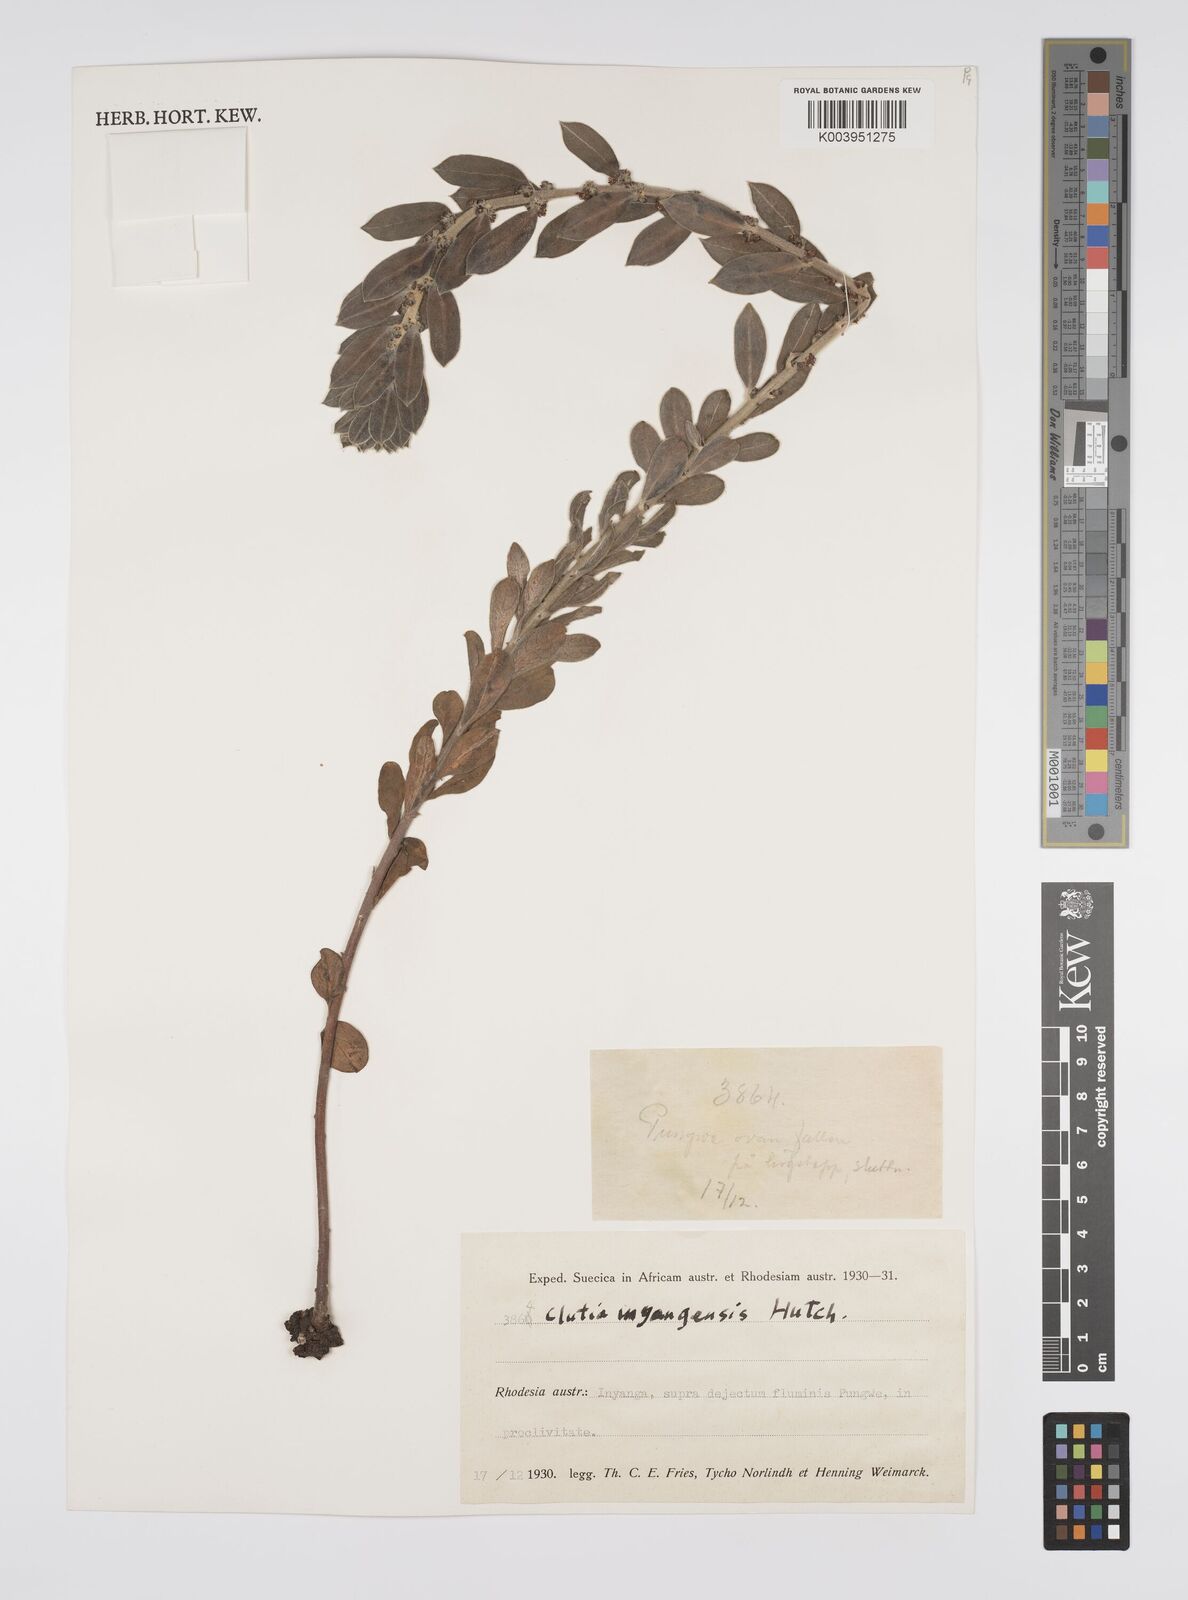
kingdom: Plantae
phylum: Tracheophyta
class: Magnoliopsida
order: Malpighiales
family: Peraceae
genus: Clutia
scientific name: Clutia
